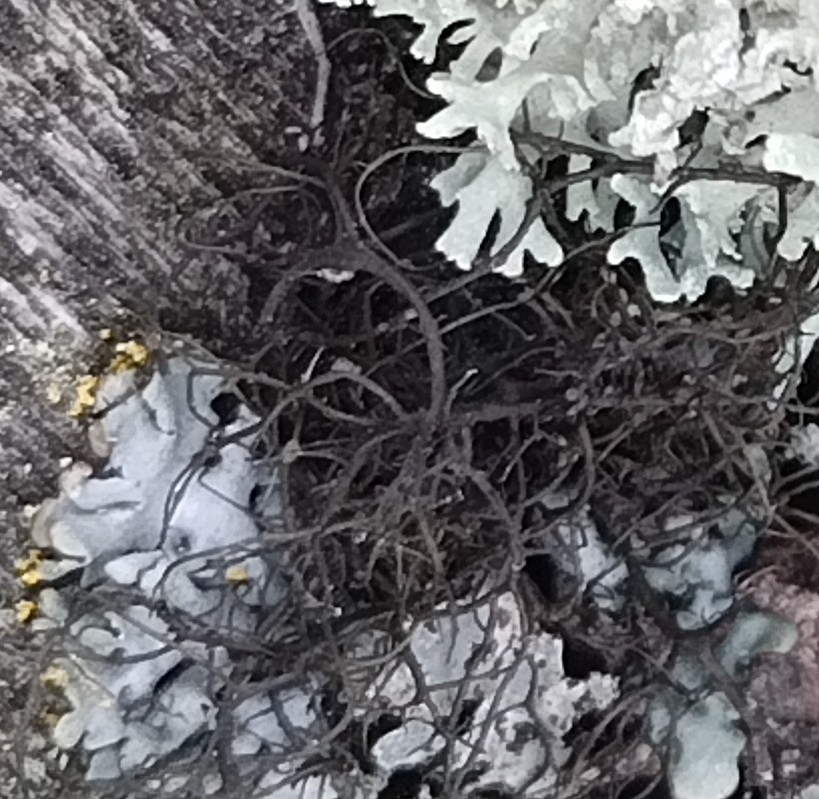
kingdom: Fungi
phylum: Ascomycota
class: Lecanoromycetes
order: Lecanorales
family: Parmeliaceae
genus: Bryoria
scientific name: Bryoria
